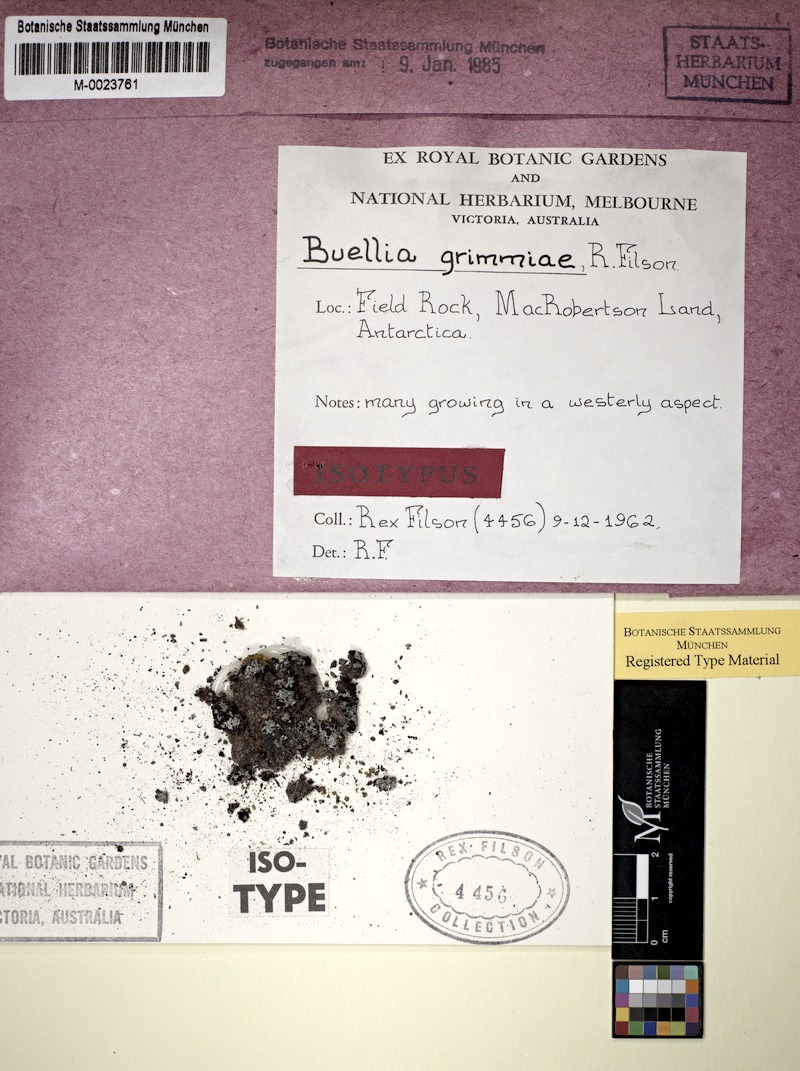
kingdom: Fungi
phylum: Ascomycota
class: Lecanoromycetes
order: Caliciales
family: Caliciaceae
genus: Tetramelas
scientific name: Tetramelas grimmiae
